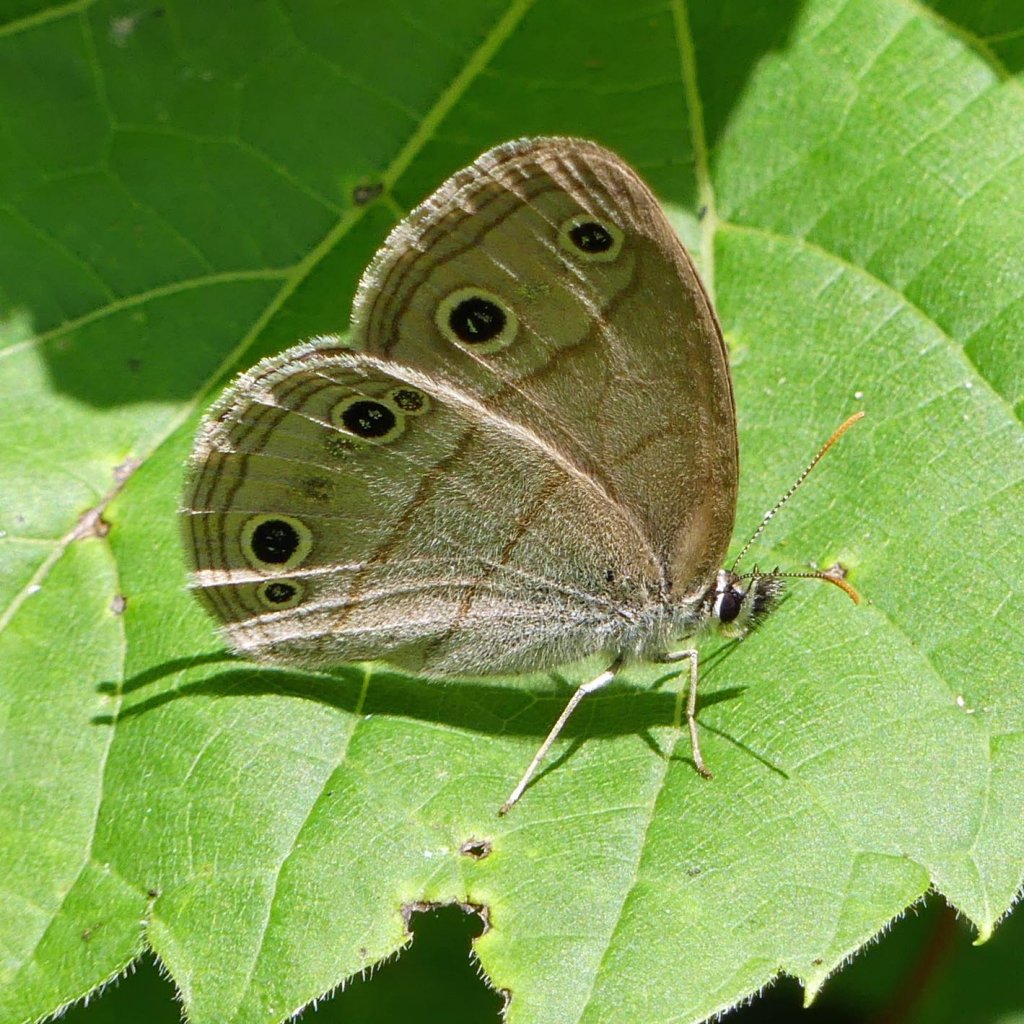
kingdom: Animalia
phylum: Arthropoda
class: Insecta
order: Lepidoptera
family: Nymphalidae
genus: Euptychia
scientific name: Euptychia cymela
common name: Little Wood Satyr
